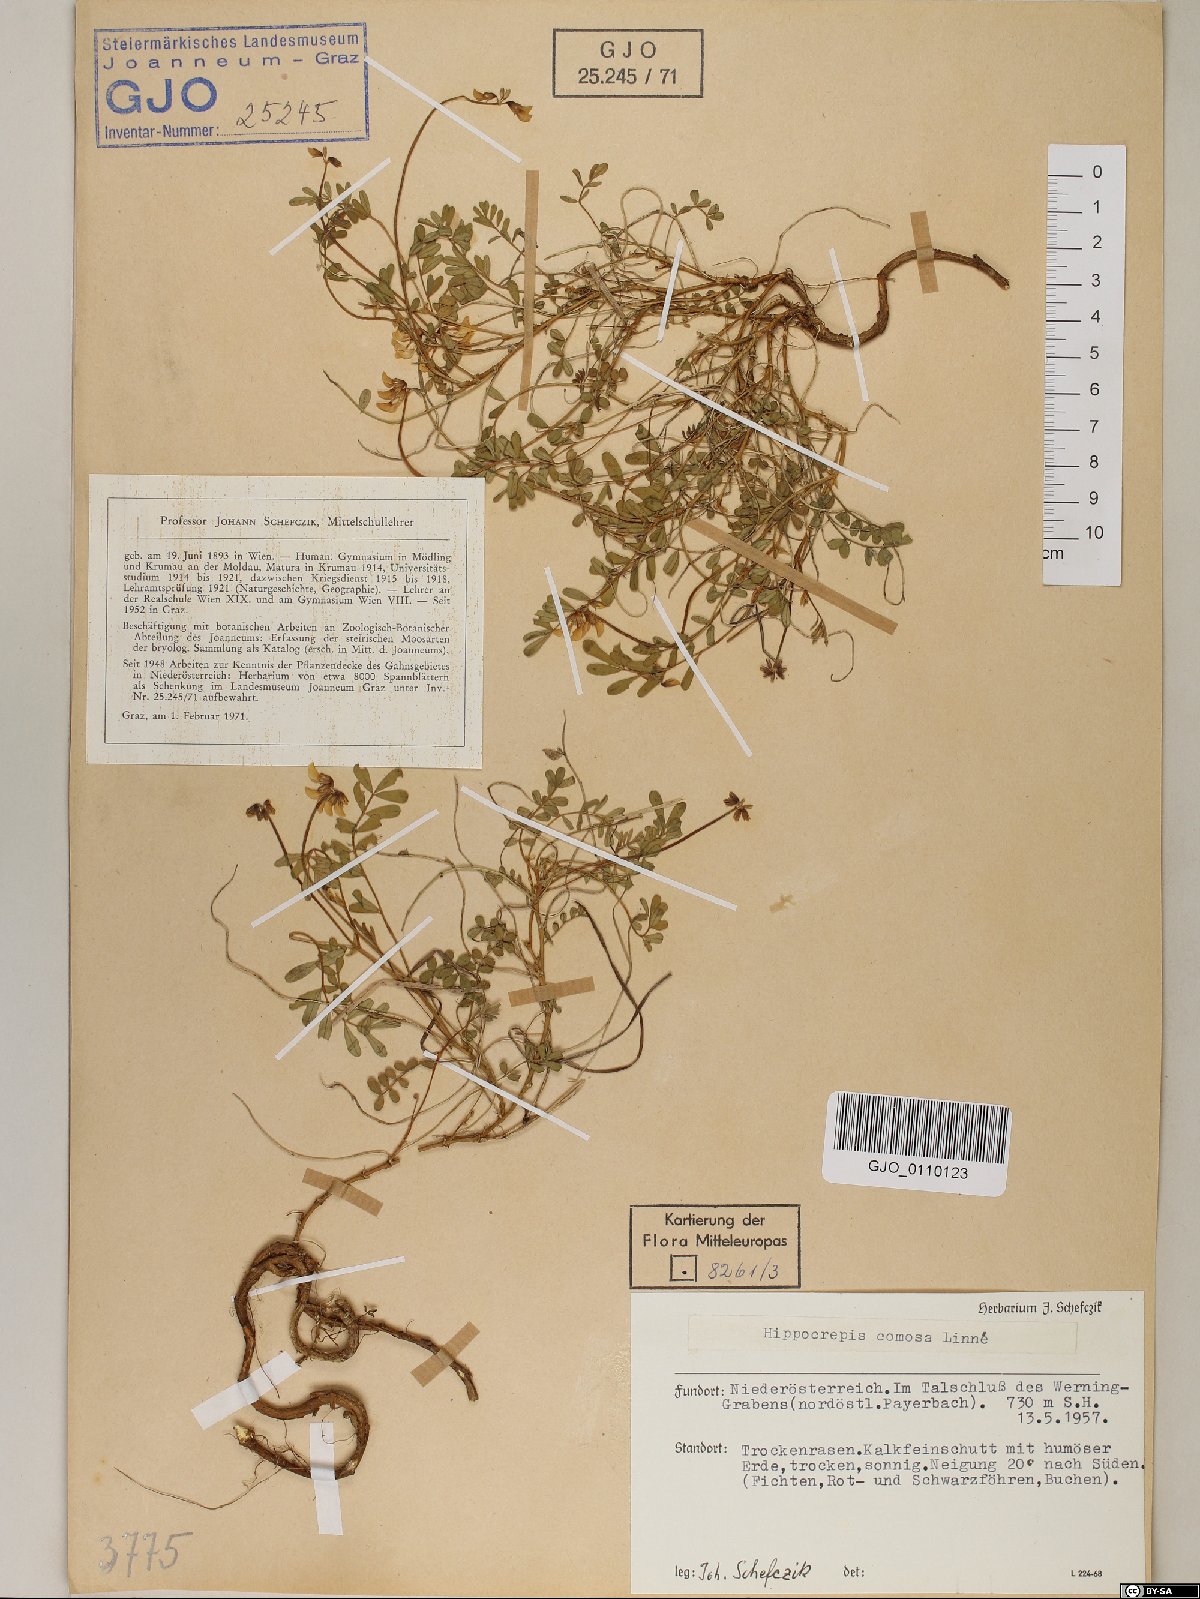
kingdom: Plantae
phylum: Tracheophyta
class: Magnoliopsida
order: Fabales
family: Fabaceae
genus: Hippocrepis
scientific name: Hippocrepis comosa
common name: Horseshoe vetch
